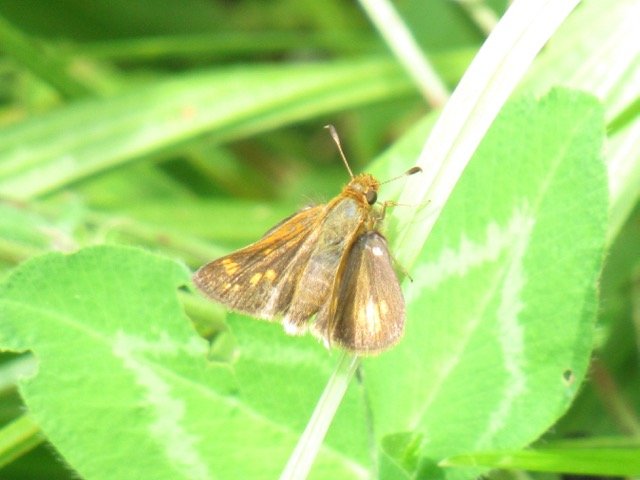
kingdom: Animalia
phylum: Arthropoda
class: Insecta
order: Lepidoptera
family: Hesperiidae
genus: Polites
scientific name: Polites coras
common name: Peck's Skipper
